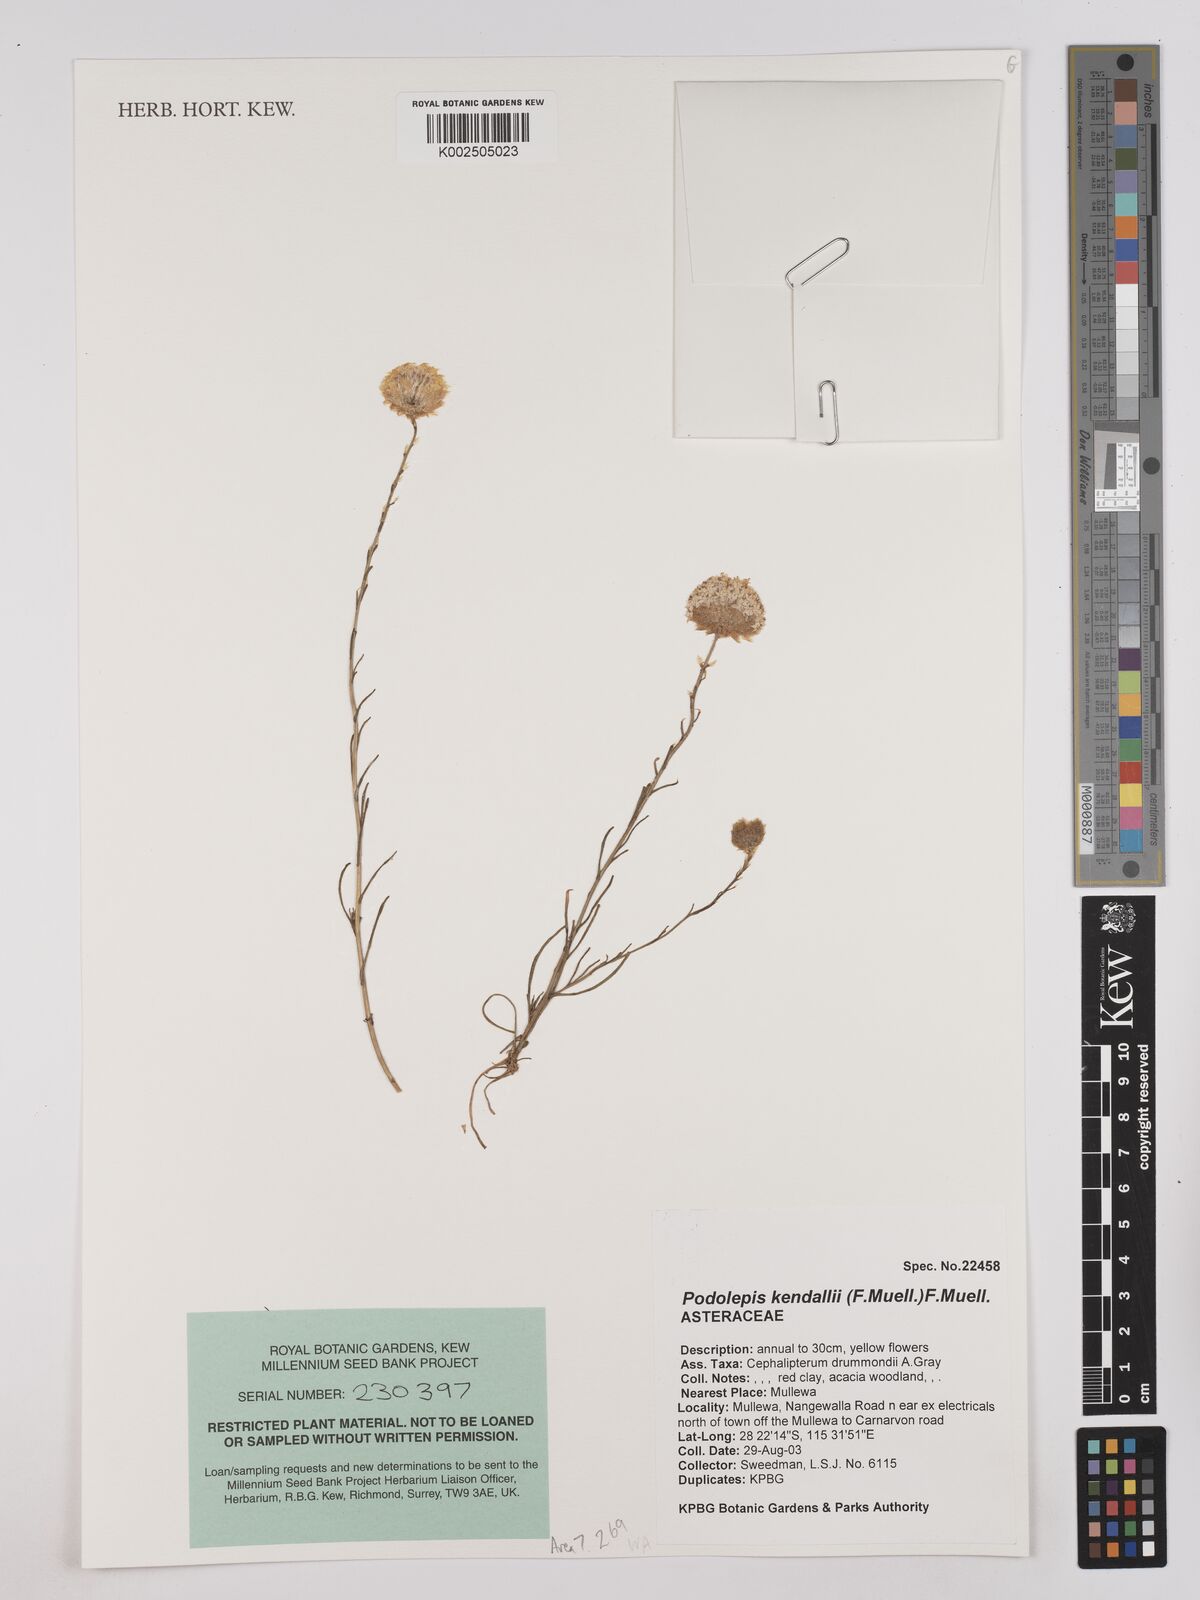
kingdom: Plantae
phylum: Tracheophyta
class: Magnoliopsida
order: Asterales
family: Asteraceae
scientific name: Asteraceae
